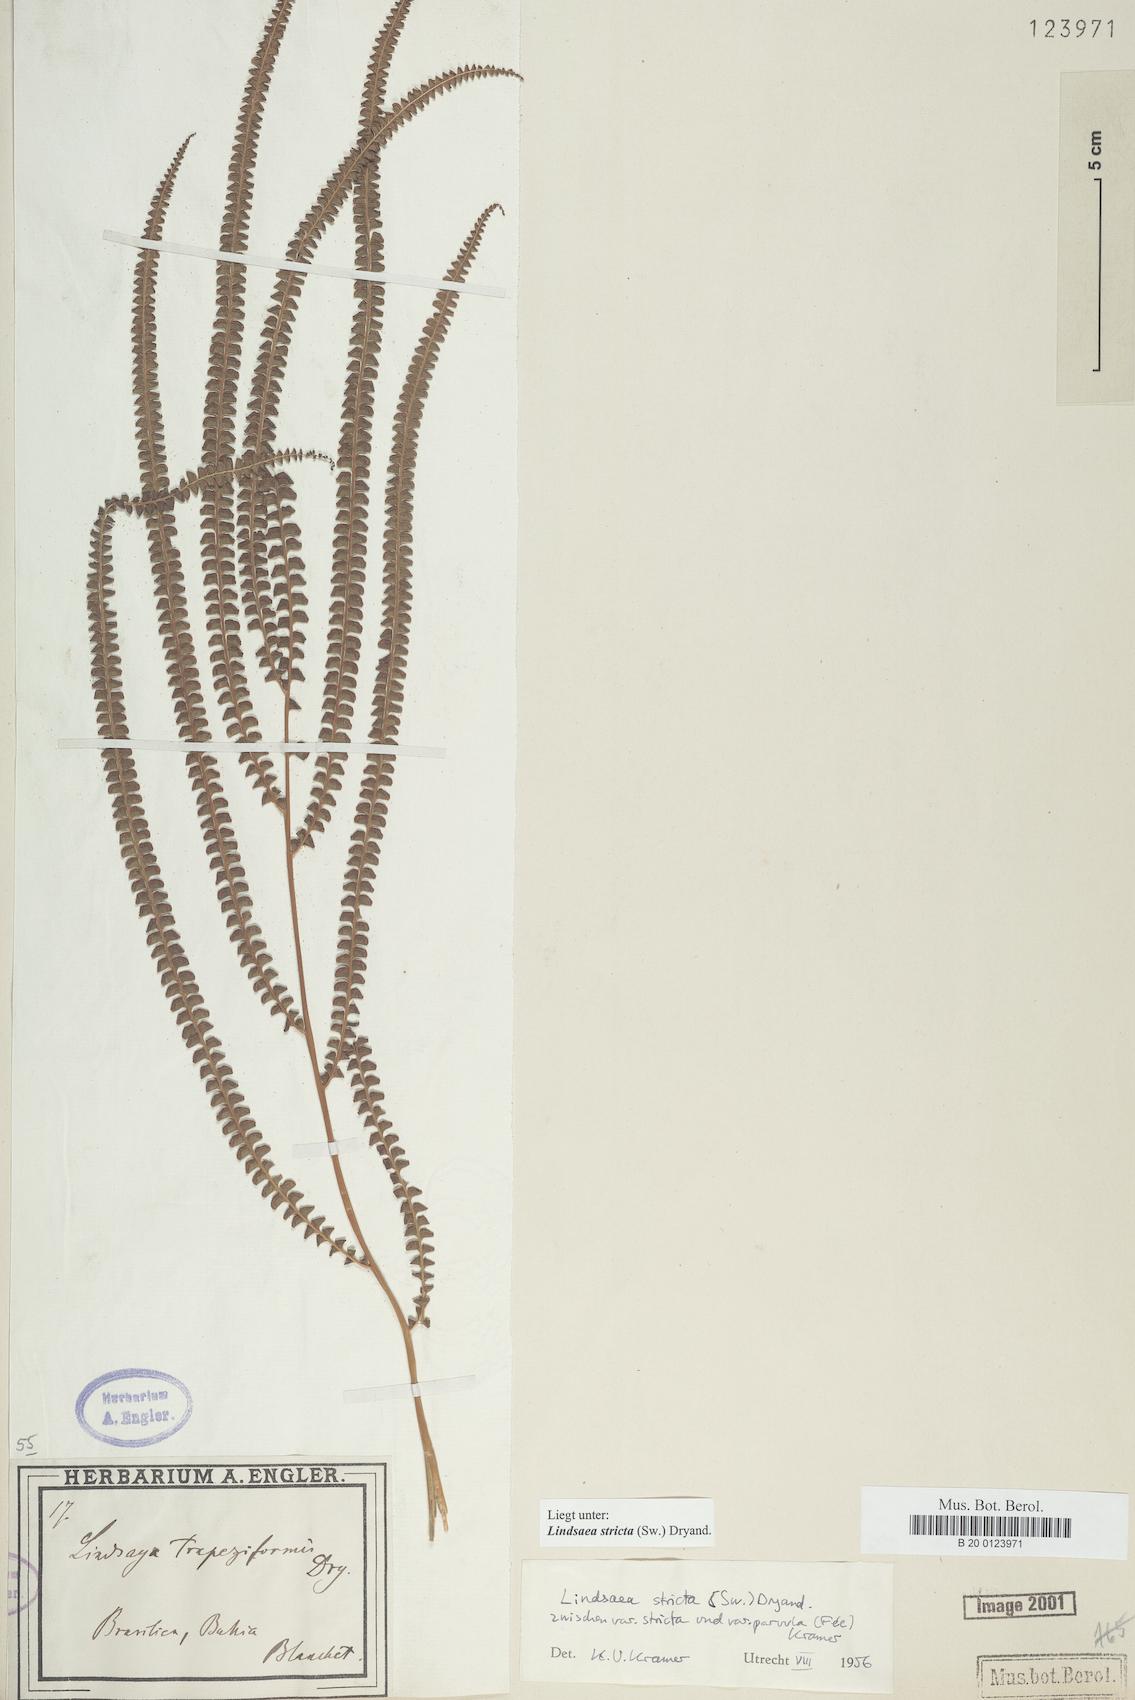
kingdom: Plantae
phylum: Tracheophyta
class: Polypodiopsida
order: Polypodiales
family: Lindsaeaceae
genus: Lindsaea
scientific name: Lindsaea stricta
